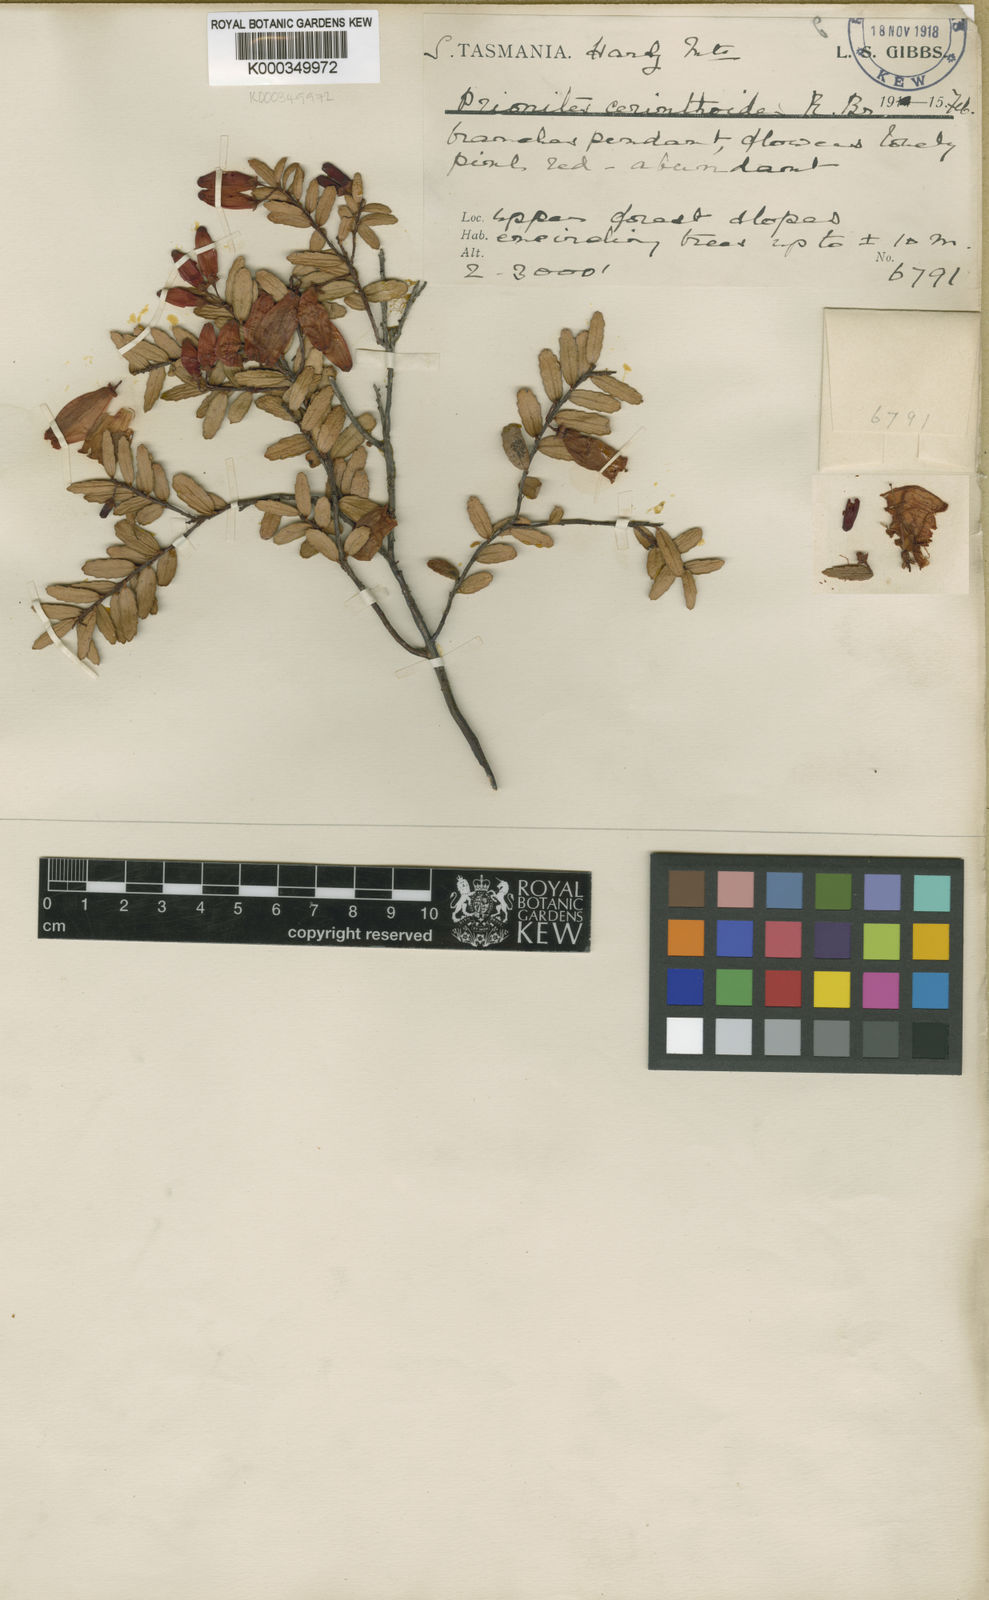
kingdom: Plantae
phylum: Tracheophyta
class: Magnoliopsida
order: Ericales
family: Ericaceae
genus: Prionotes
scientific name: Prionotes cerinthoides
